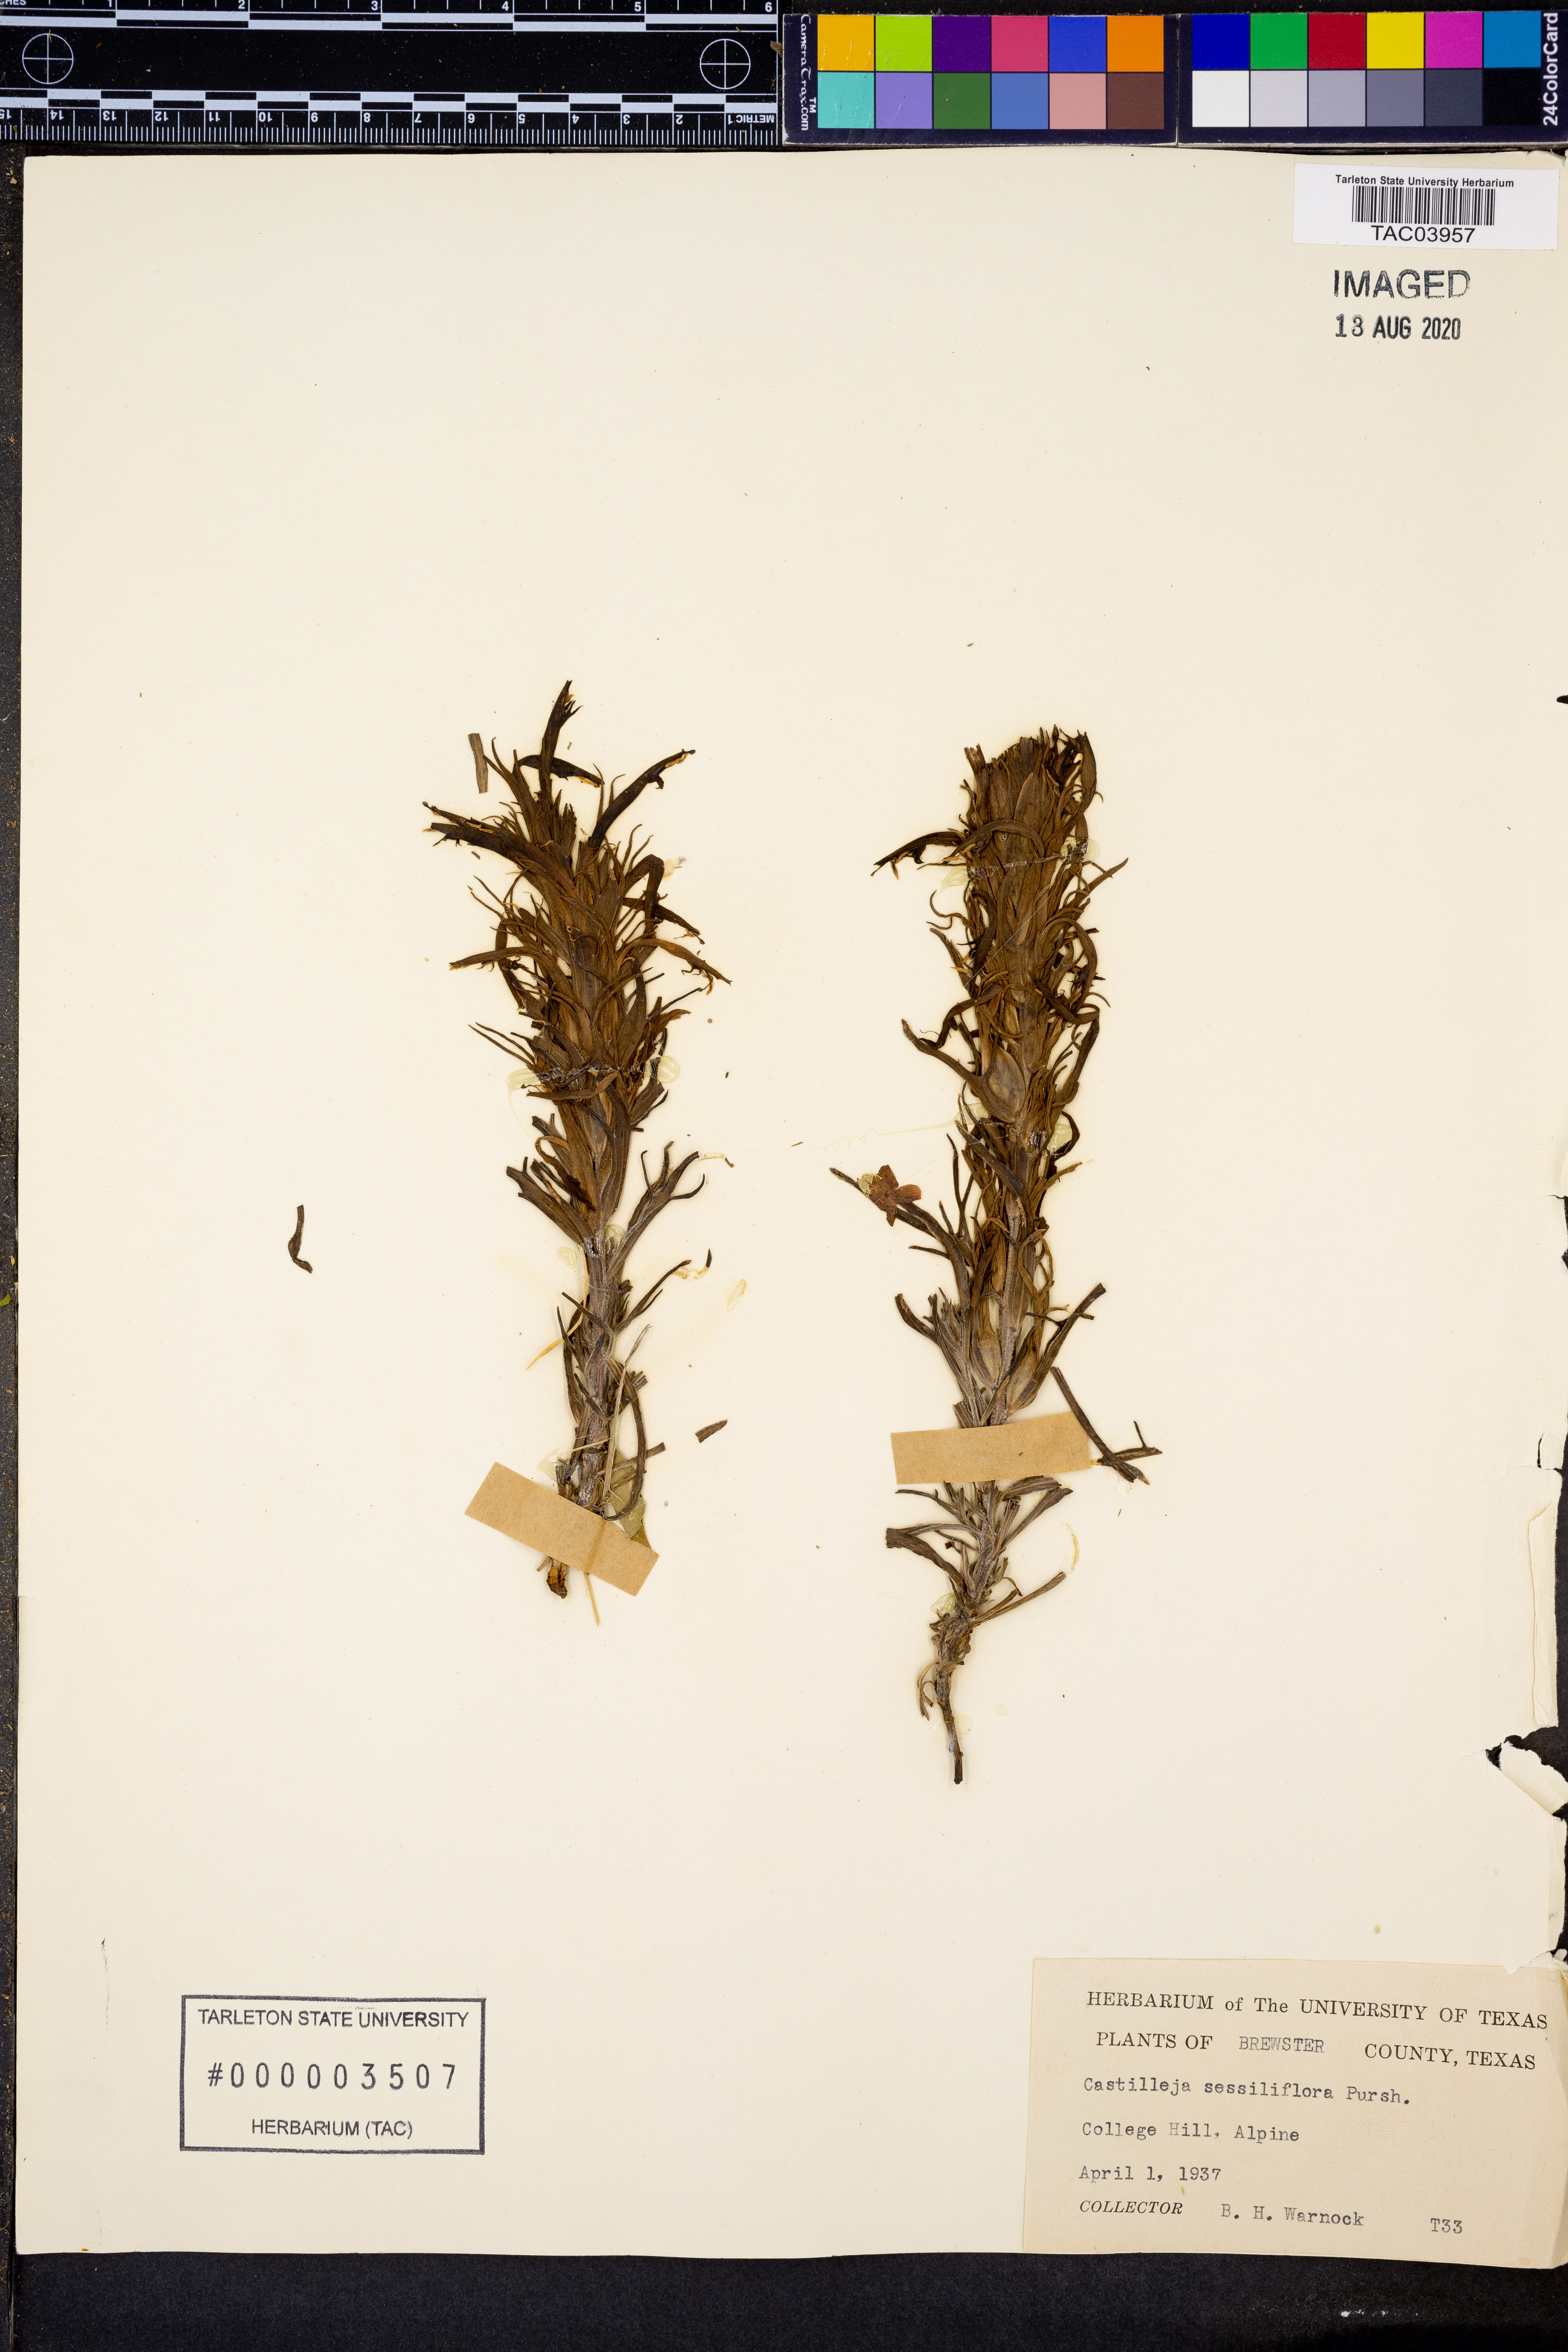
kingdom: Plantae
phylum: Tracheophyta
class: Magnoliopsida
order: Lamiales
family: Orobanchaceae
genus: Castilleja
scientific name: Castilleja sessiliflora
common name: Downy paintbrush
